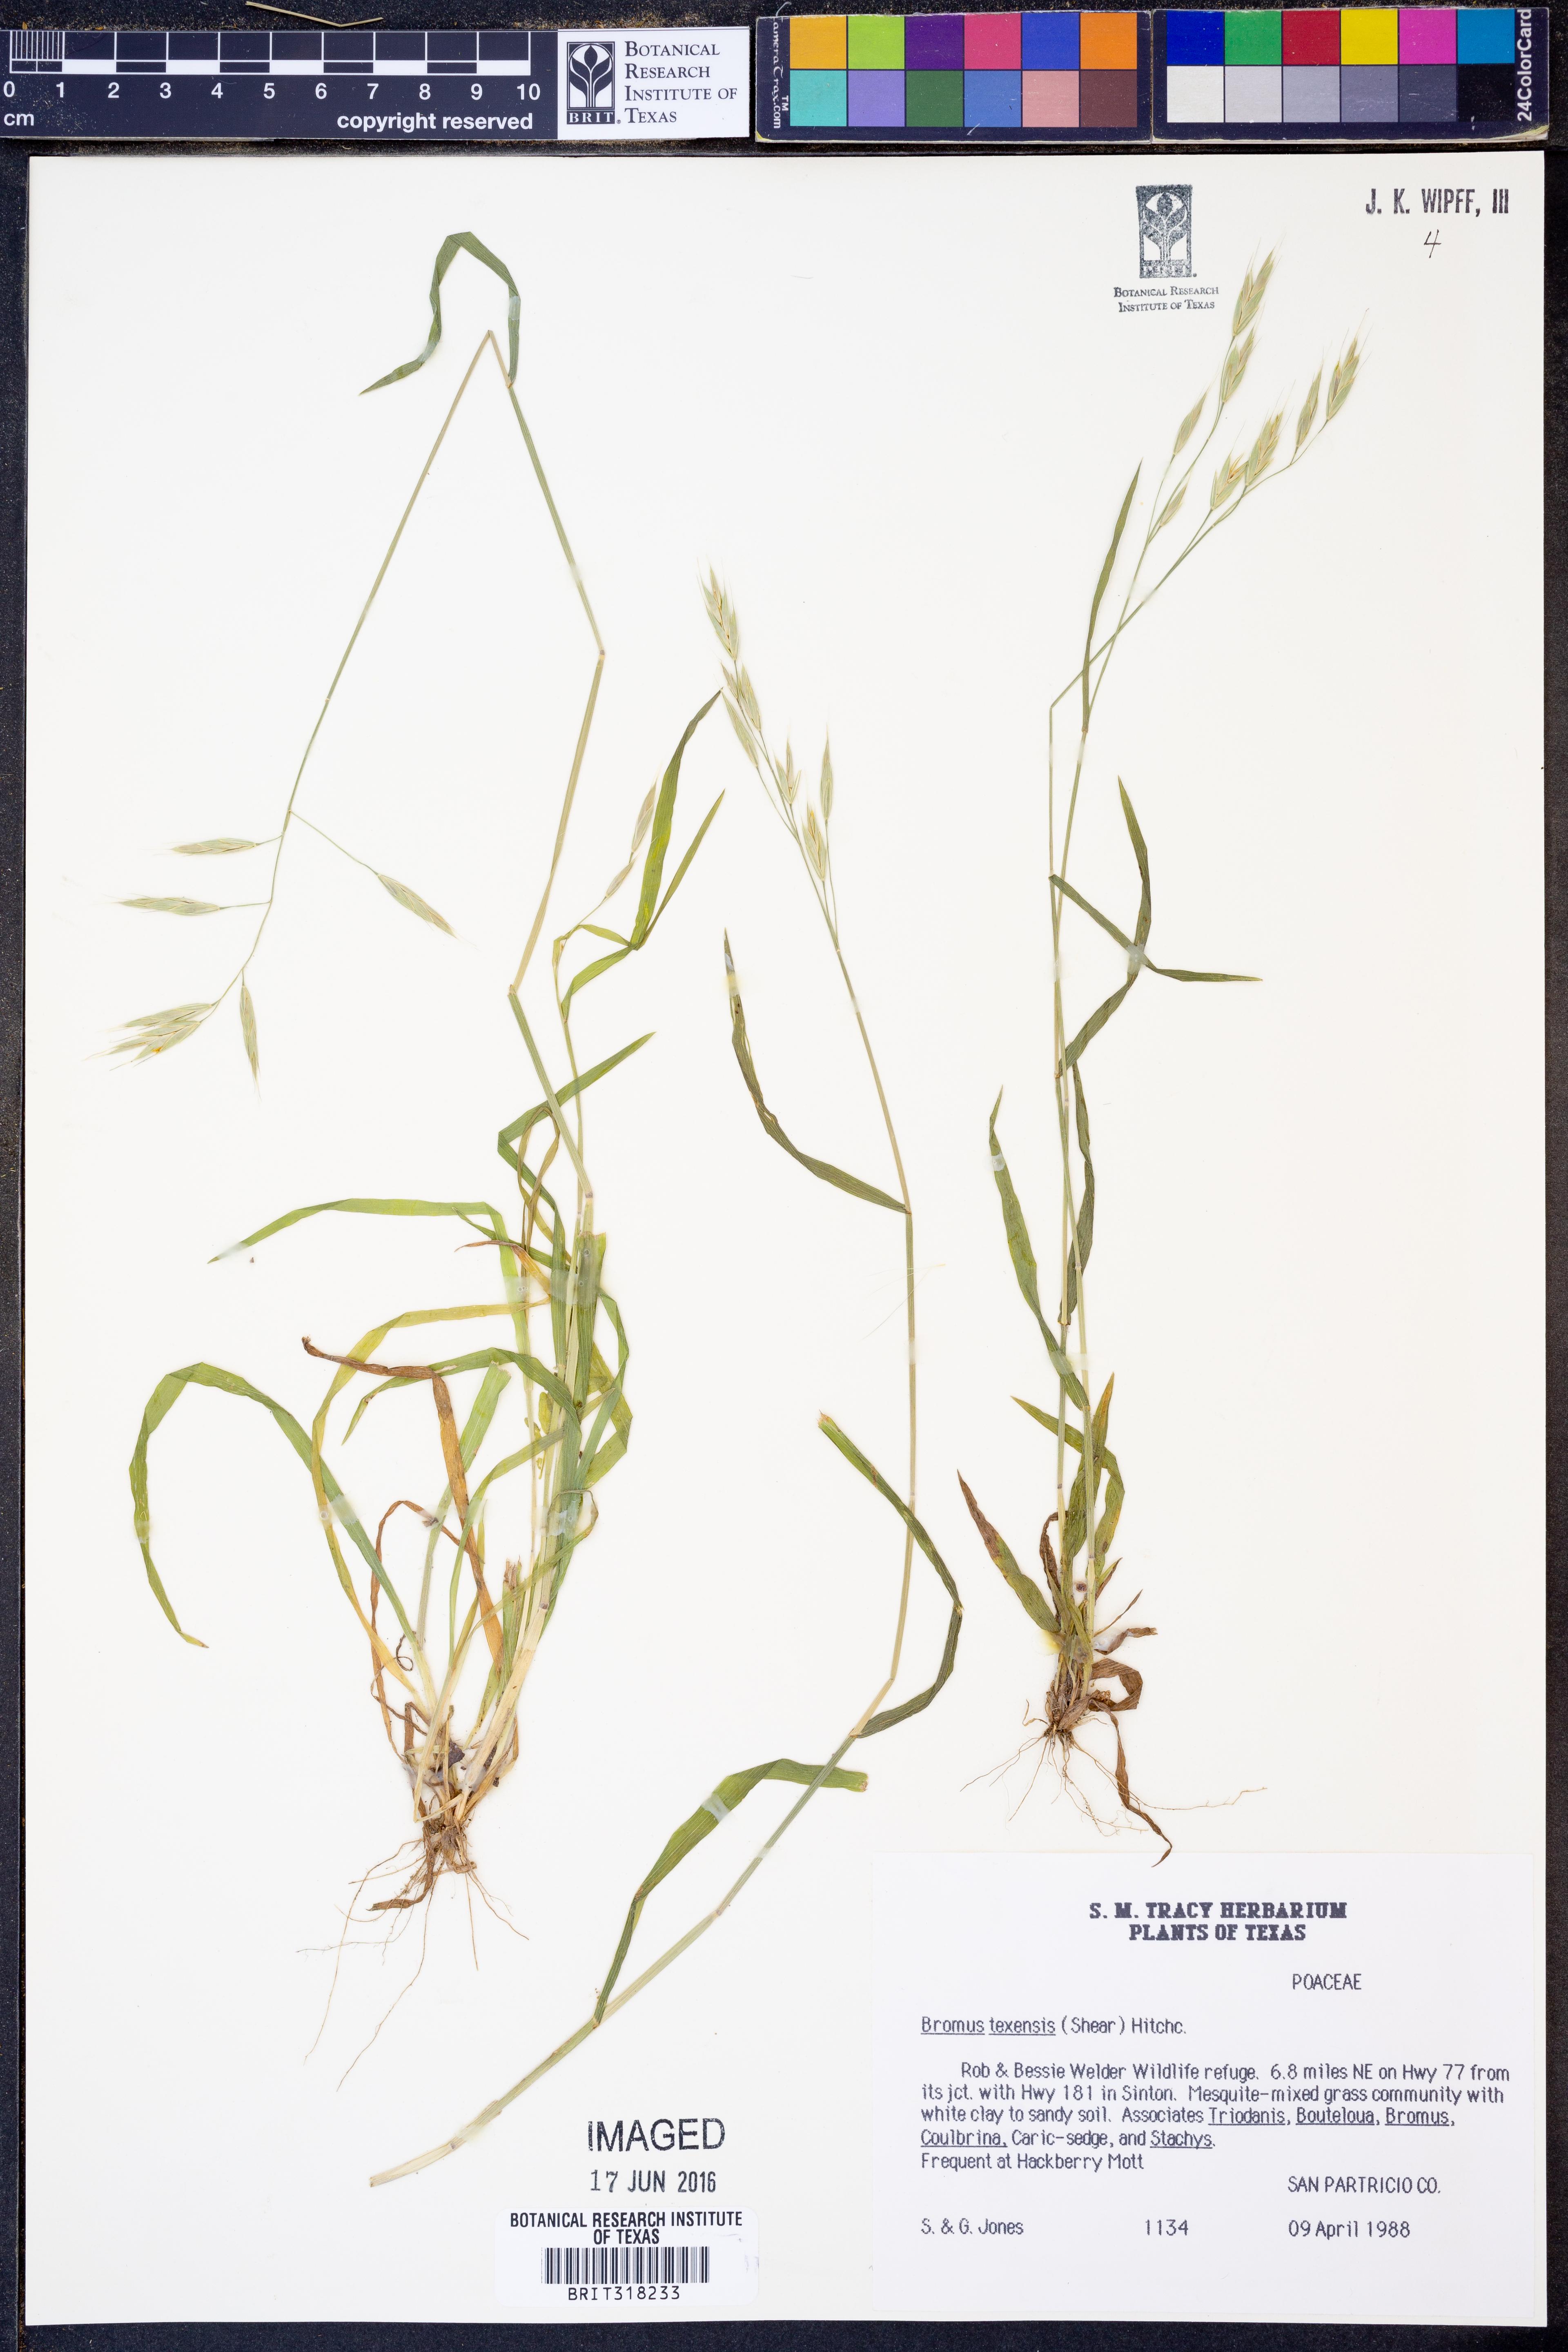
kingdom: Plantae
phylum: Tracheophyta
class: Liliopsida
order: Poales
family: Poaceae
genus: Bromus
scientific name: Bromus texensis
